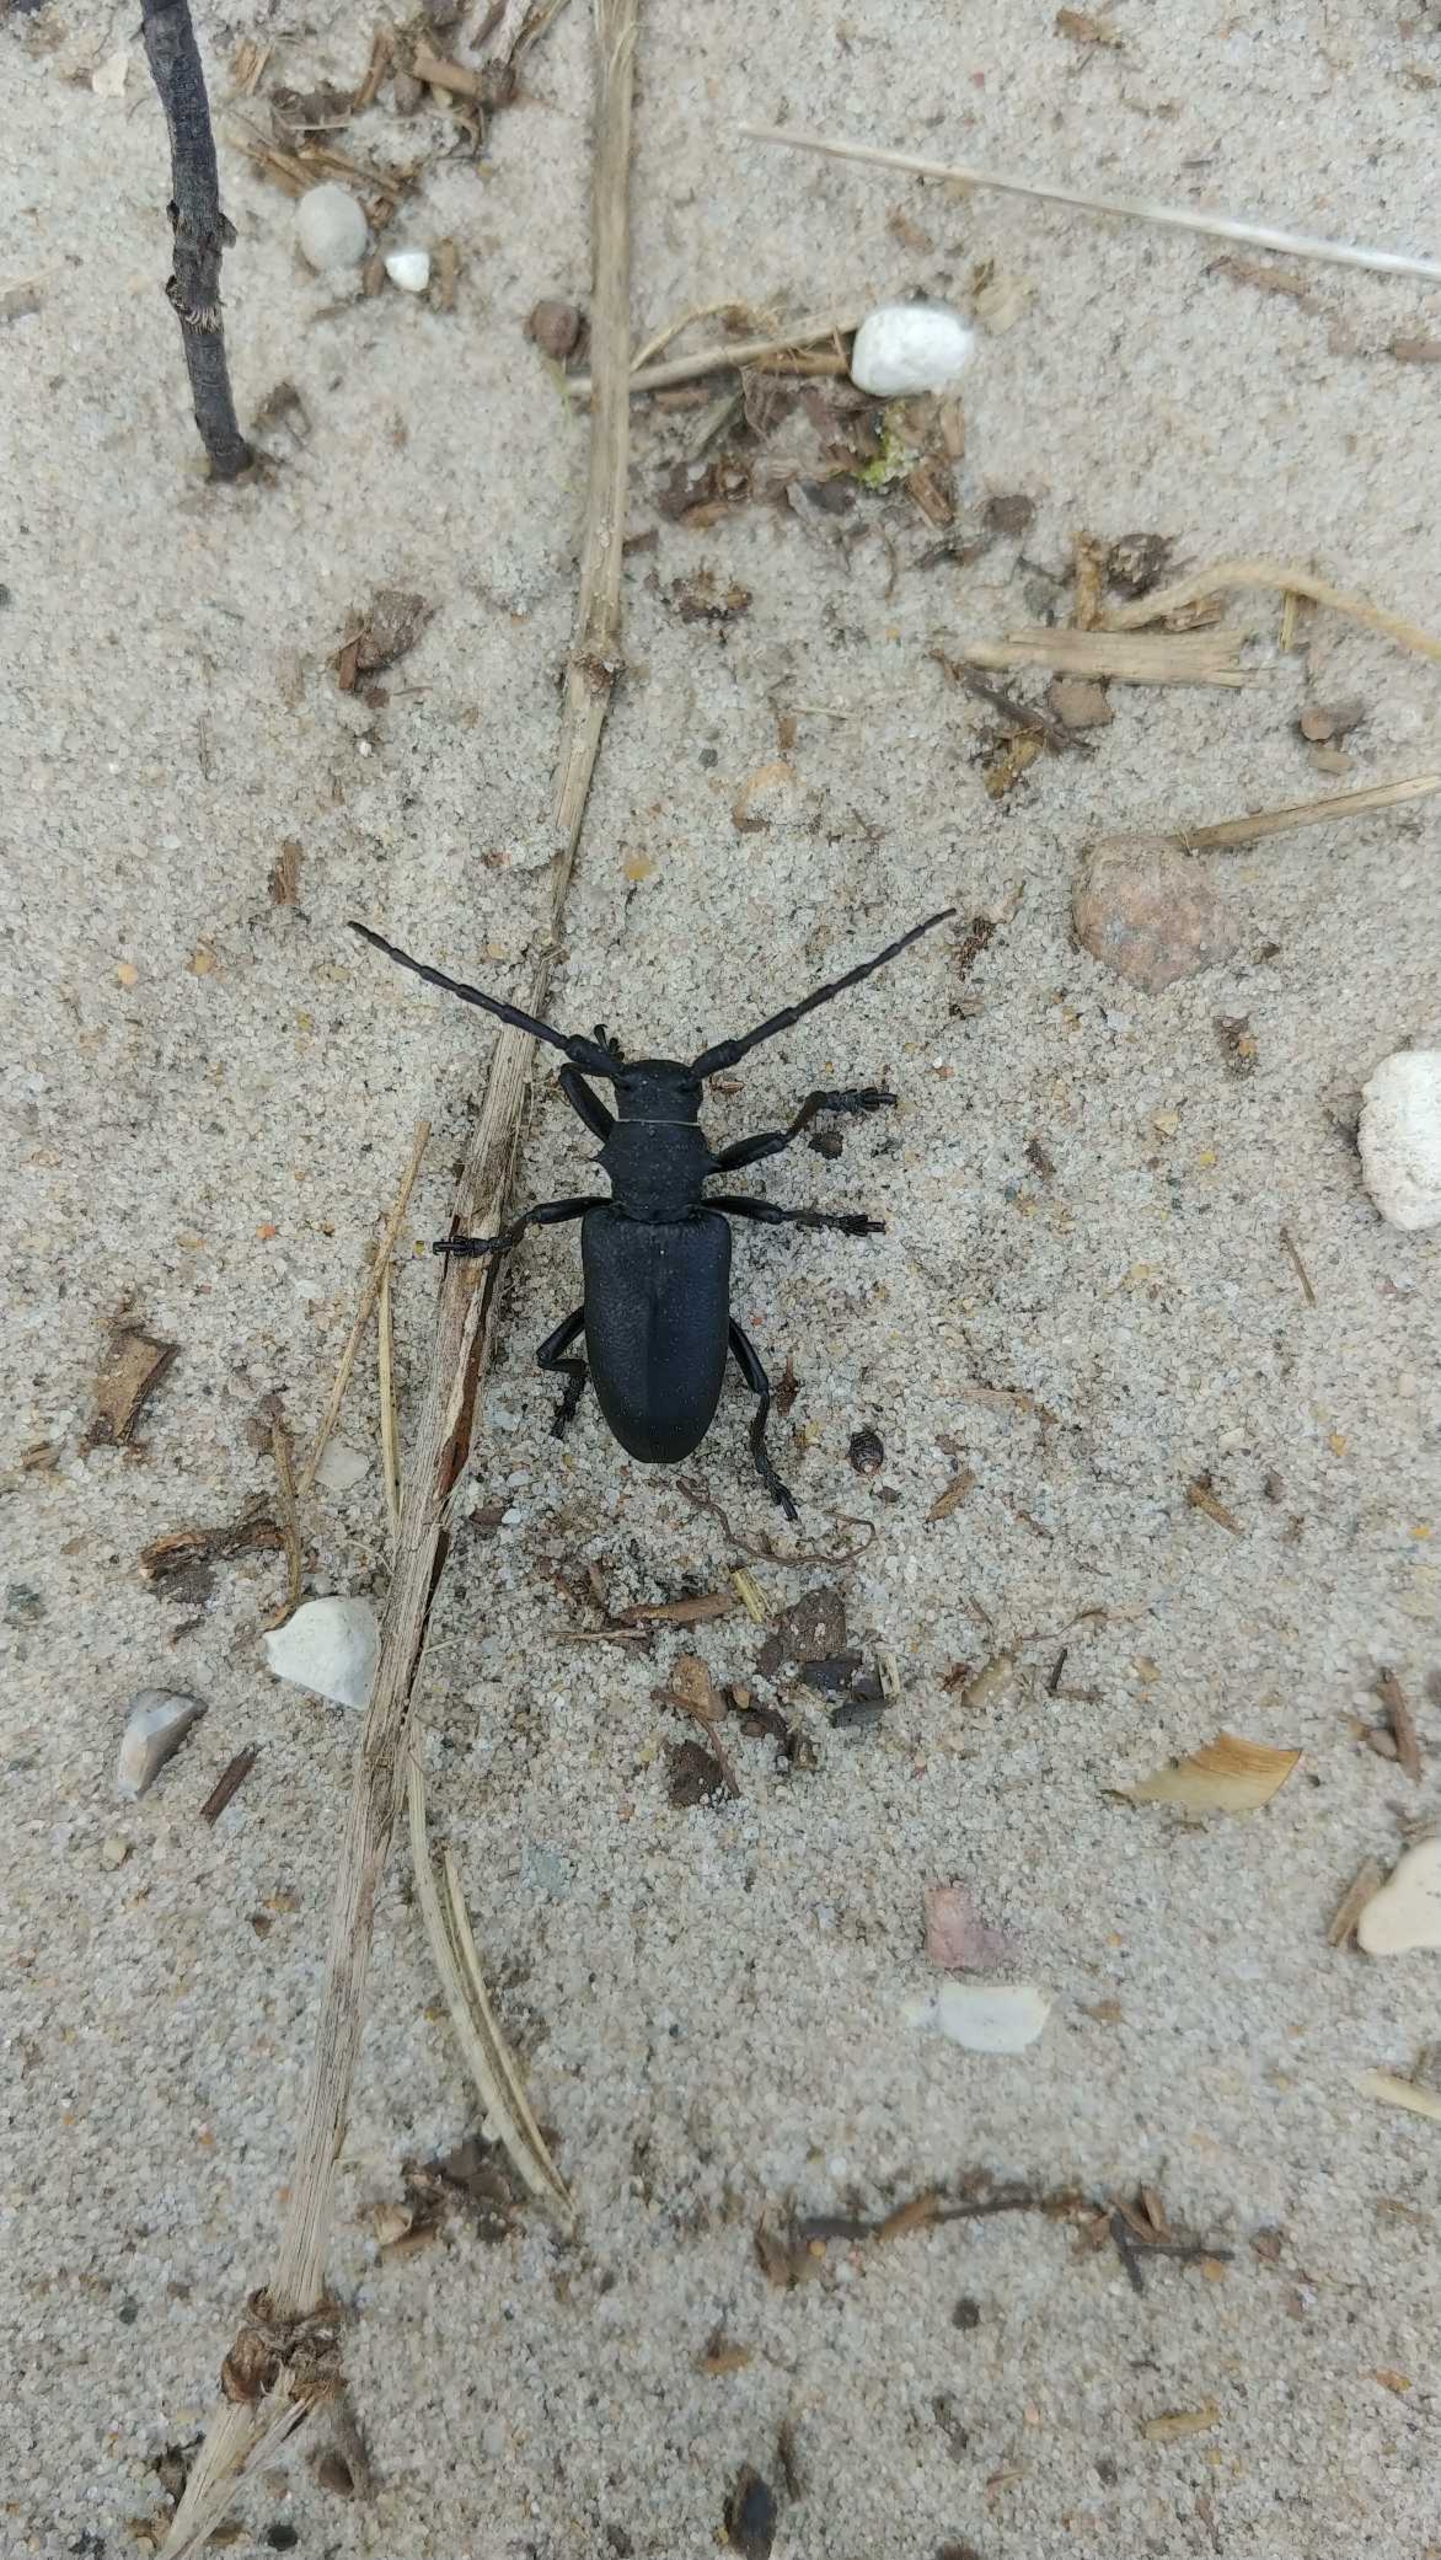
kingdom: Animalia
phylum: Arthropoda
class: Insecta
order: Coleoptera
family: Cerambycidae
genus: Lamia
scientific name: Lamia textor
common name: Væver
